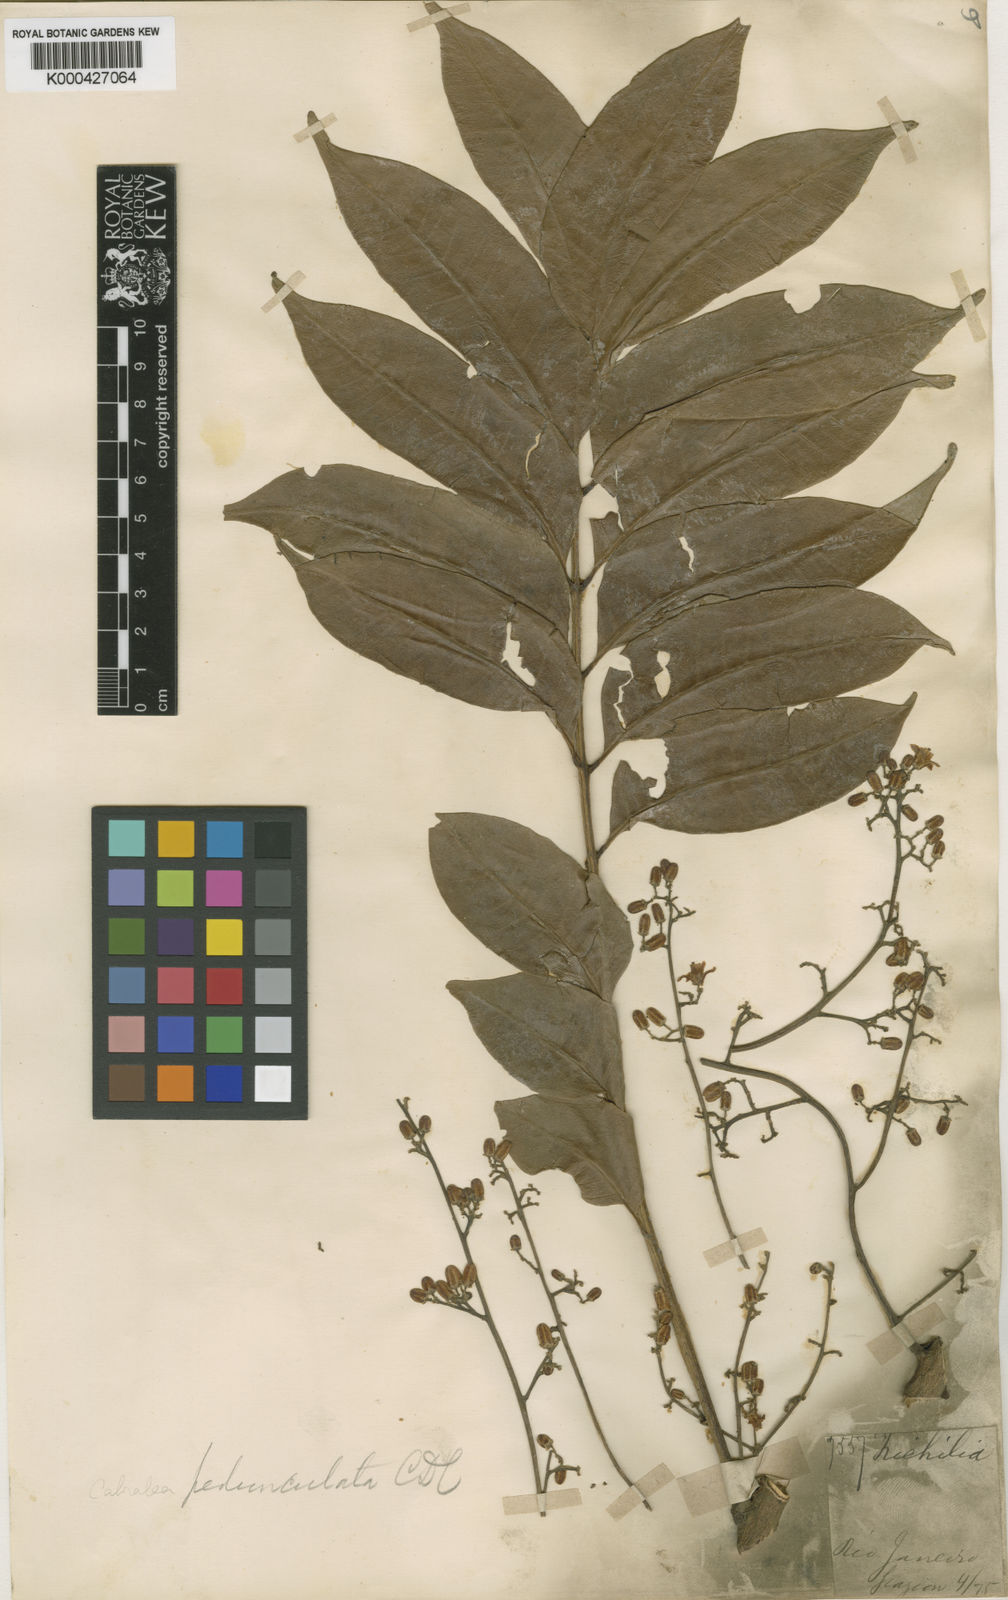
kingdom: Plantae
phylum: Tracheophyta
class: Magnoliopsida
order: Sapindales
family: Meliaceae
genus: Cabralea
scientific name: Cabralea canjerana
